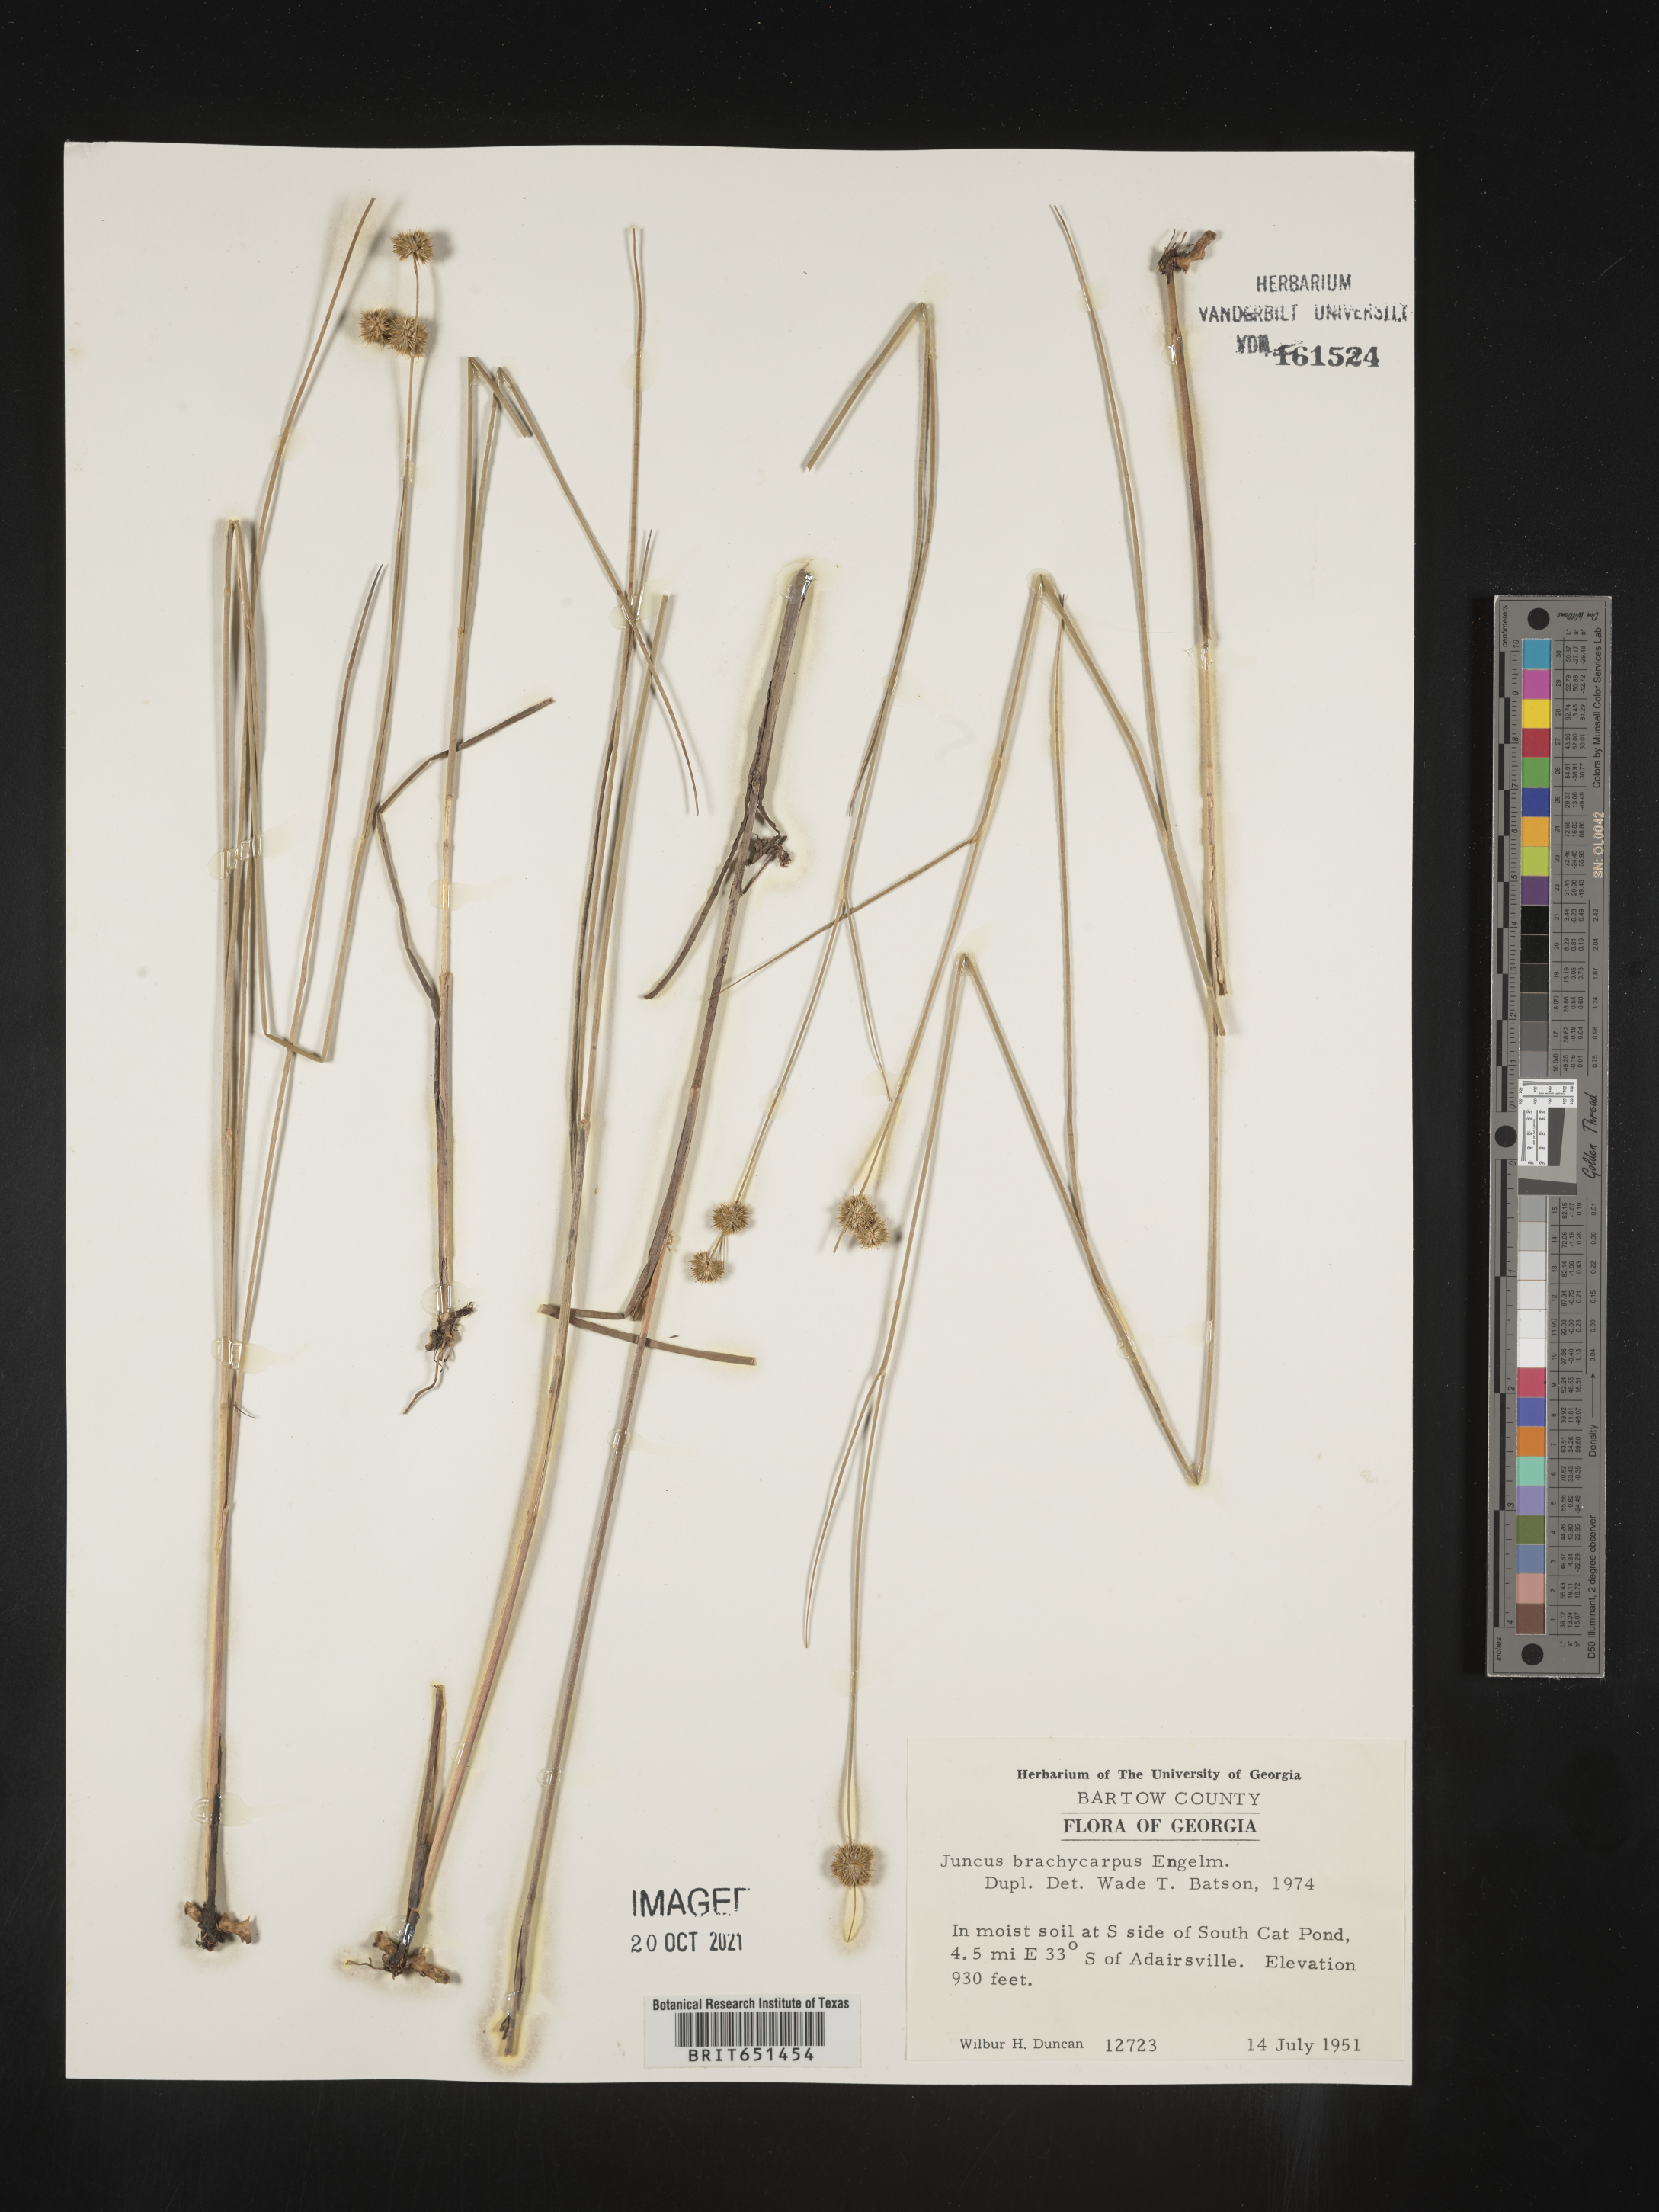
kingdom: Plantae
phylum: Tracheophyta
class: Liliopsida
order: Poales
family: Juncaceae
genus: Juncus
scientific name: Juncus brachycarpus
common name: Shore rush
